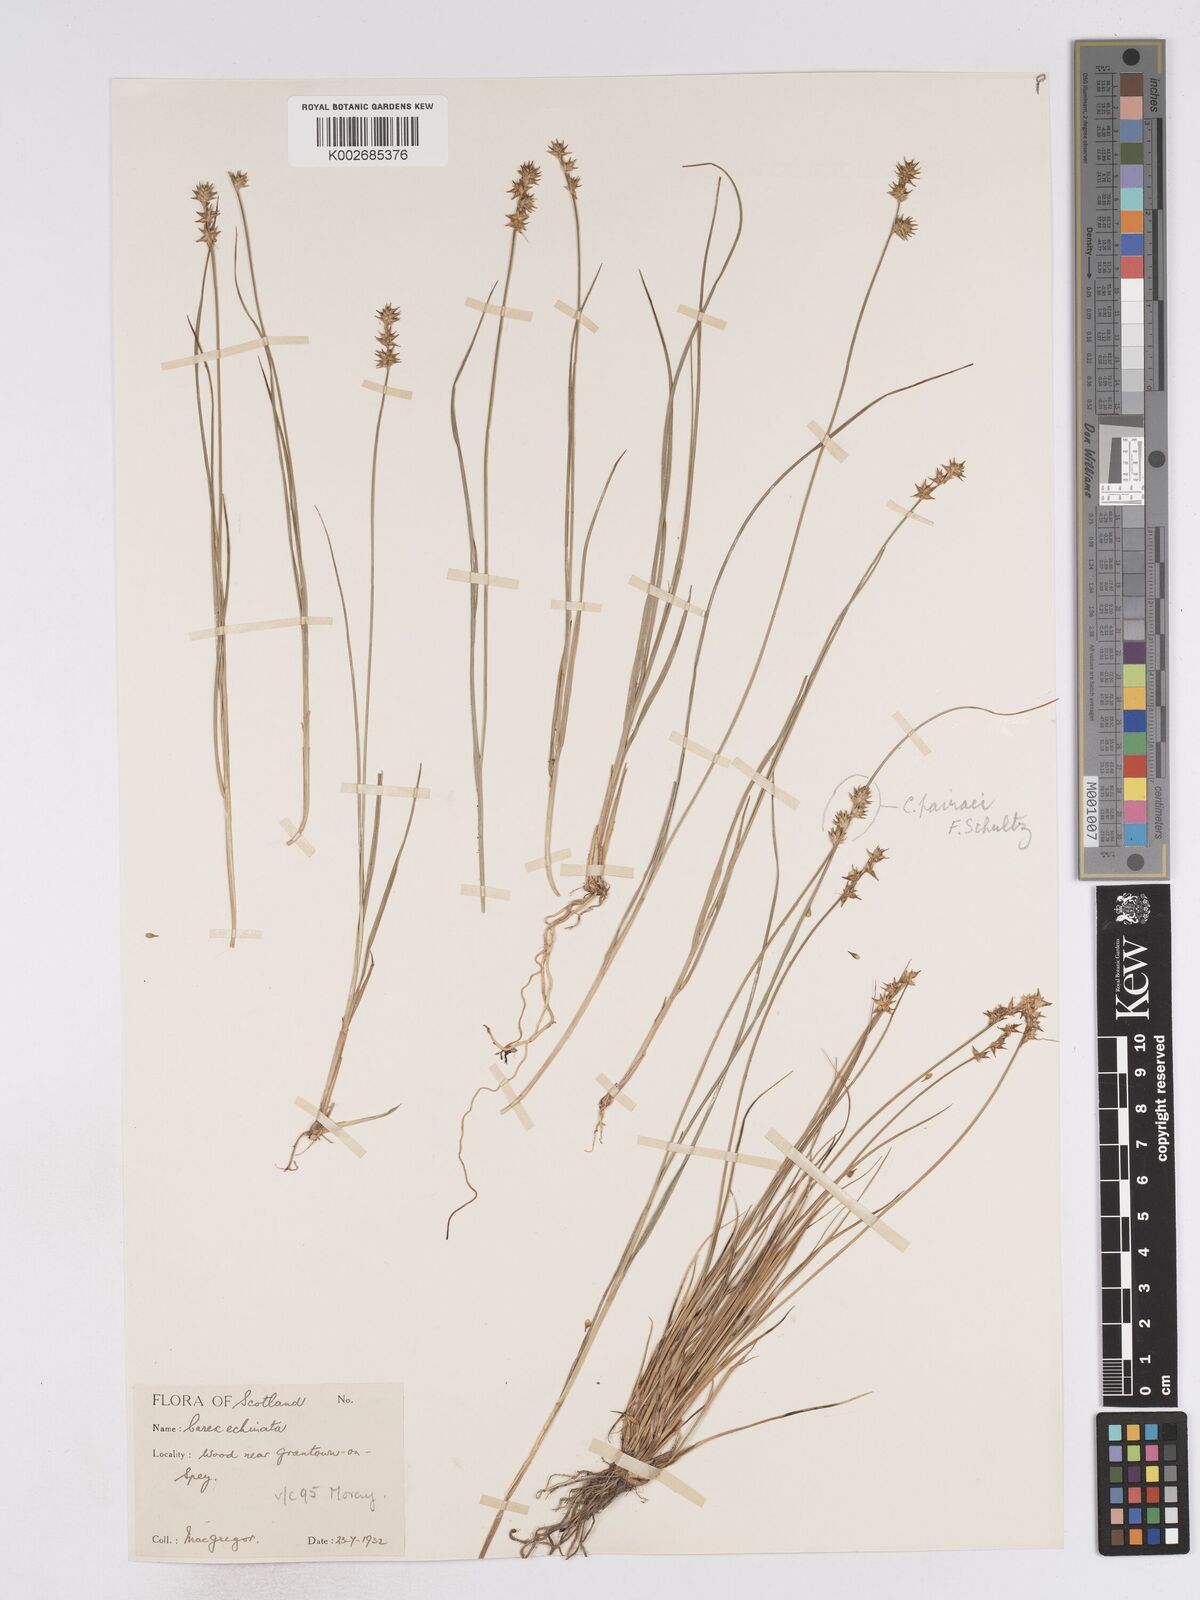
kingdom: Plantae
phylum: Tracheophyta
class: Liliopsida
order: Poales
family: Cyperaceae
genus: Carex
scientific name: Carex echinata
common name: Star sedge
